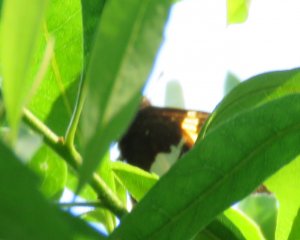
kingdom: Animalia
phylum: Arthropoda
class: Insecta
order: Lepidoptera
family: Hesperiidae
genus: Epargyreus
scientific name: Epargyreus clarus
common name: Silver-spotted Skipper
